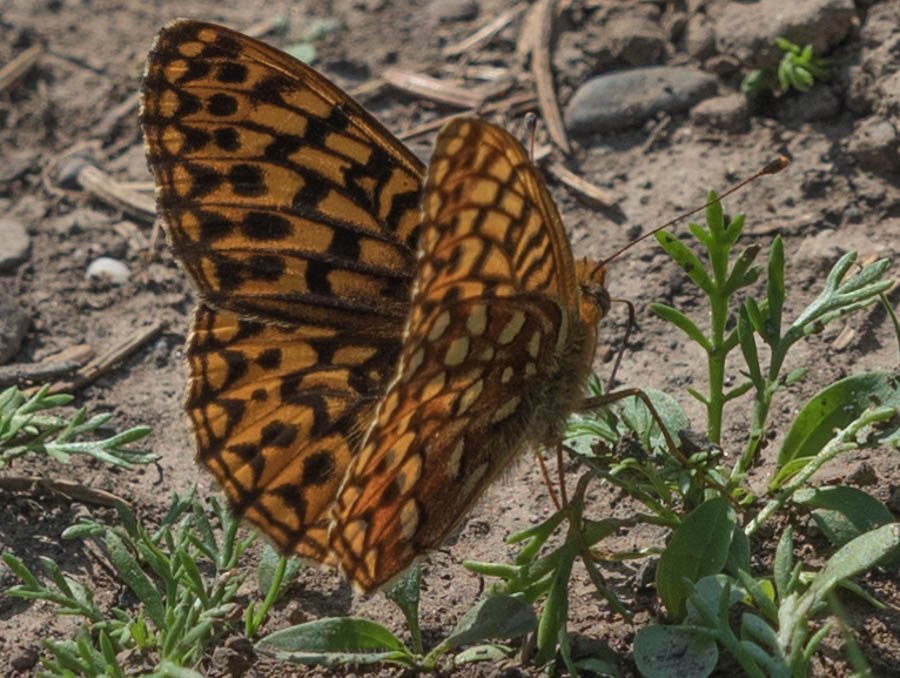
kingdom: Animalia
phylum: Arthropoda
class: Insecta
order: Lepidoptera
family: Nymphalidae
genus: Speyeria
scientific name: Speyeria hydaspe
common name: Hydaspe Fritillary
